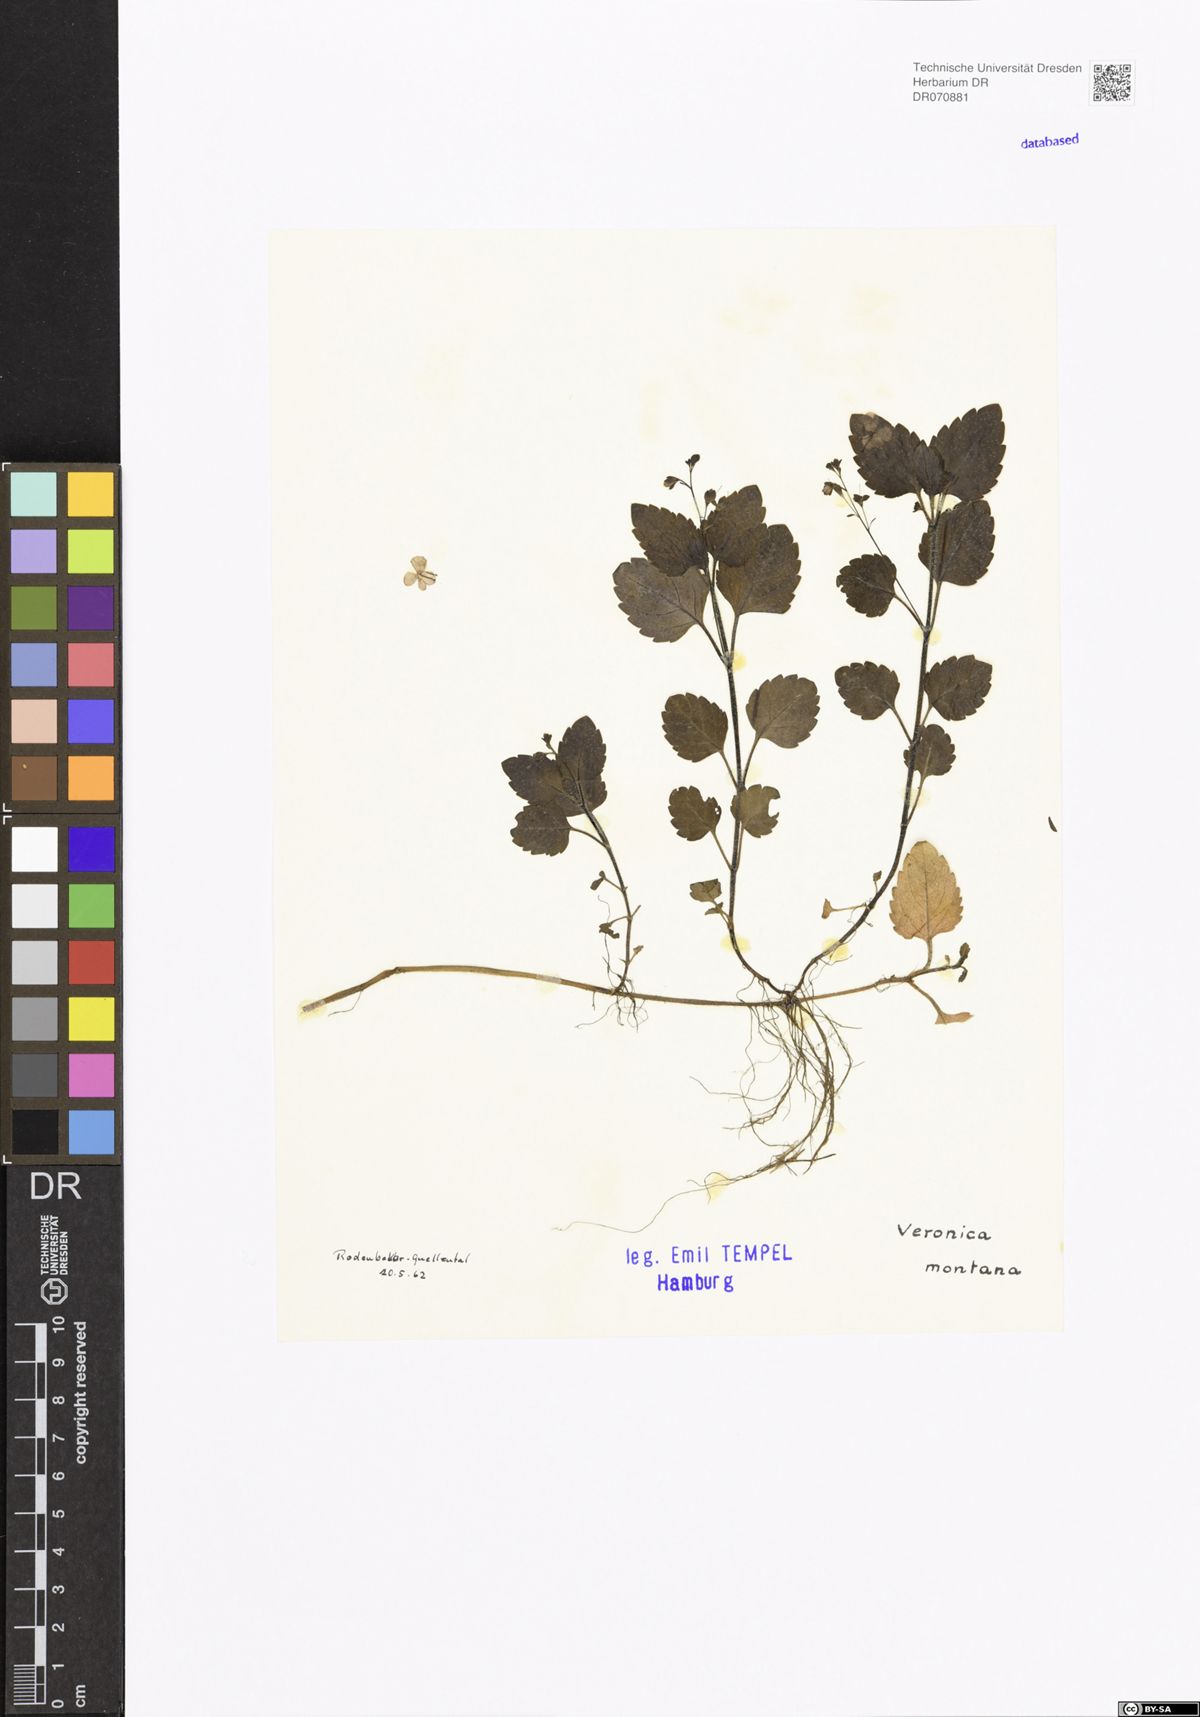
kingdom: Plantae
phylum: Tracheophyta
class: Magnoliopsida
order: Lamiales
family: Plantaginaceae
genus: Veronica
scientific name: Veronica montana
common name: Wood speedwell
